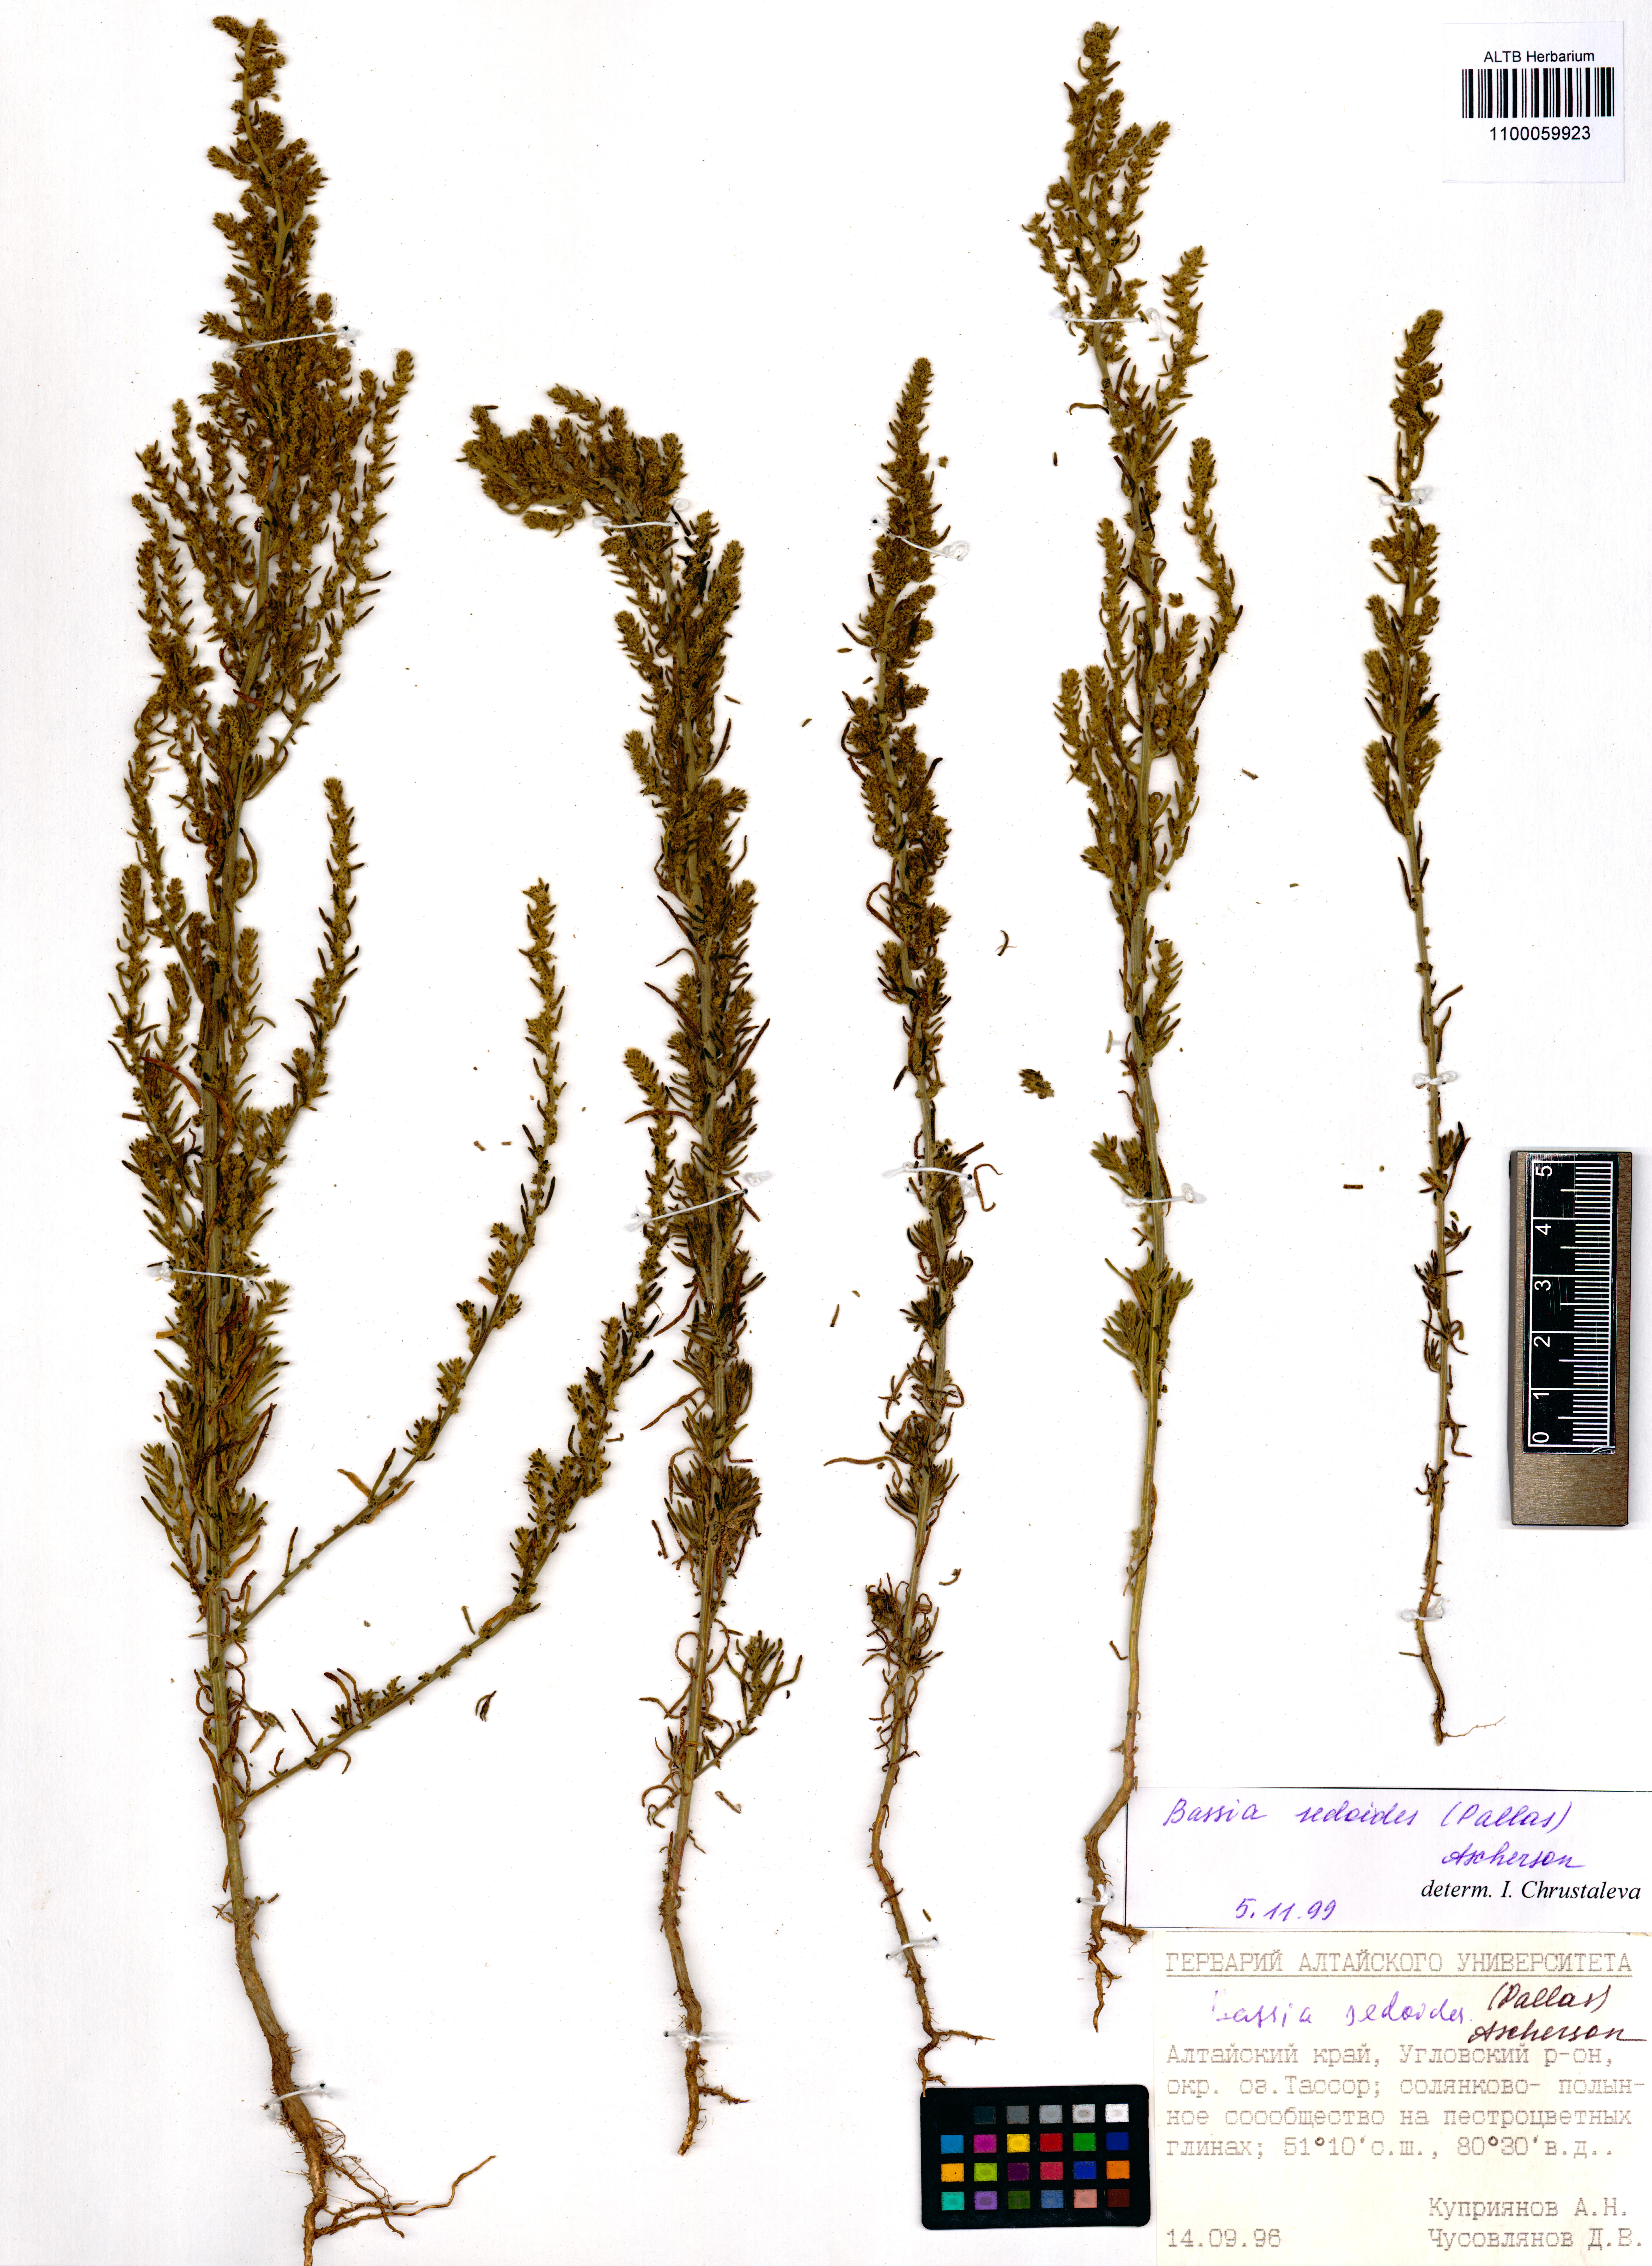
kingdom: Plantae
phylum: Tracheophyta
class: Magnoliopsida
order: Caryophyllales
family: Amaranthaceae
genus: Sedobassia
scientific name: Sedobassia sedoides
